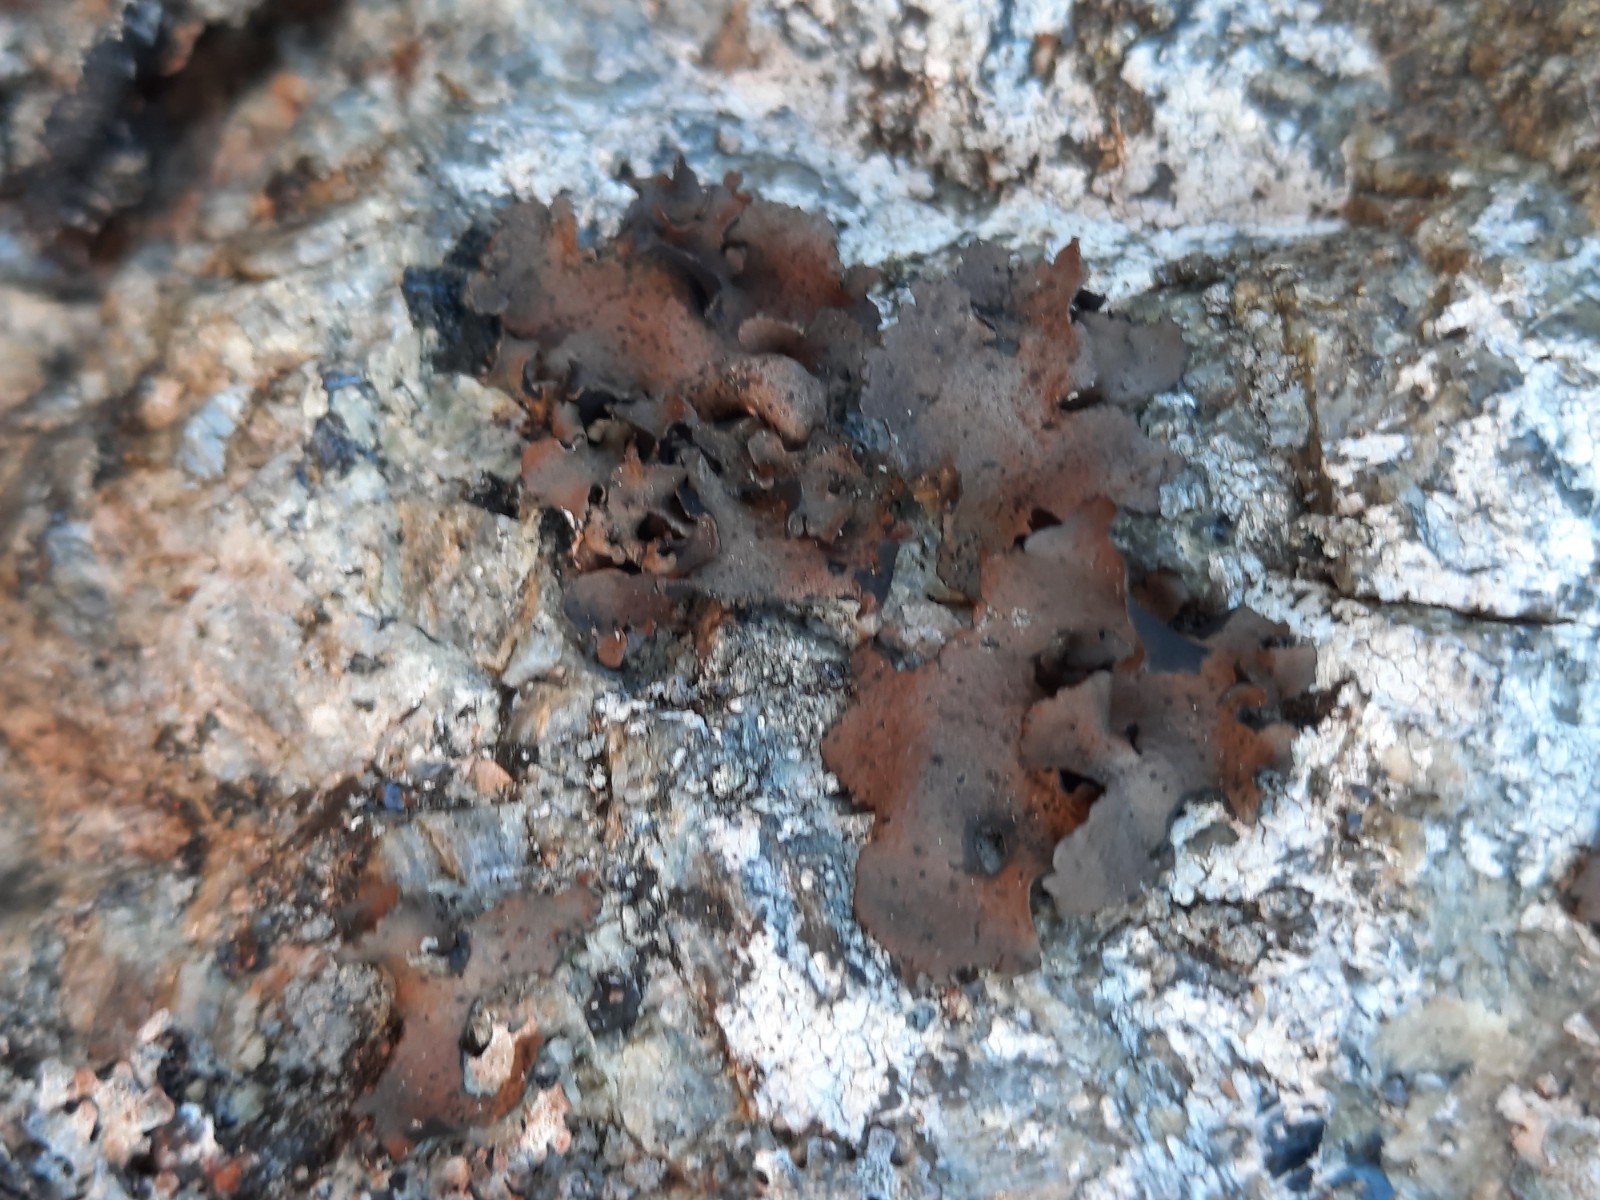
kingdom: Fungi
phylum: Ascomycota
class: Lecanoromycetes
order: Umbilicariales
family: Umbilicariaceae
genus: Umbilicaria
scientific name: Umbilicaria polyphylla
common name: glat navlelav
